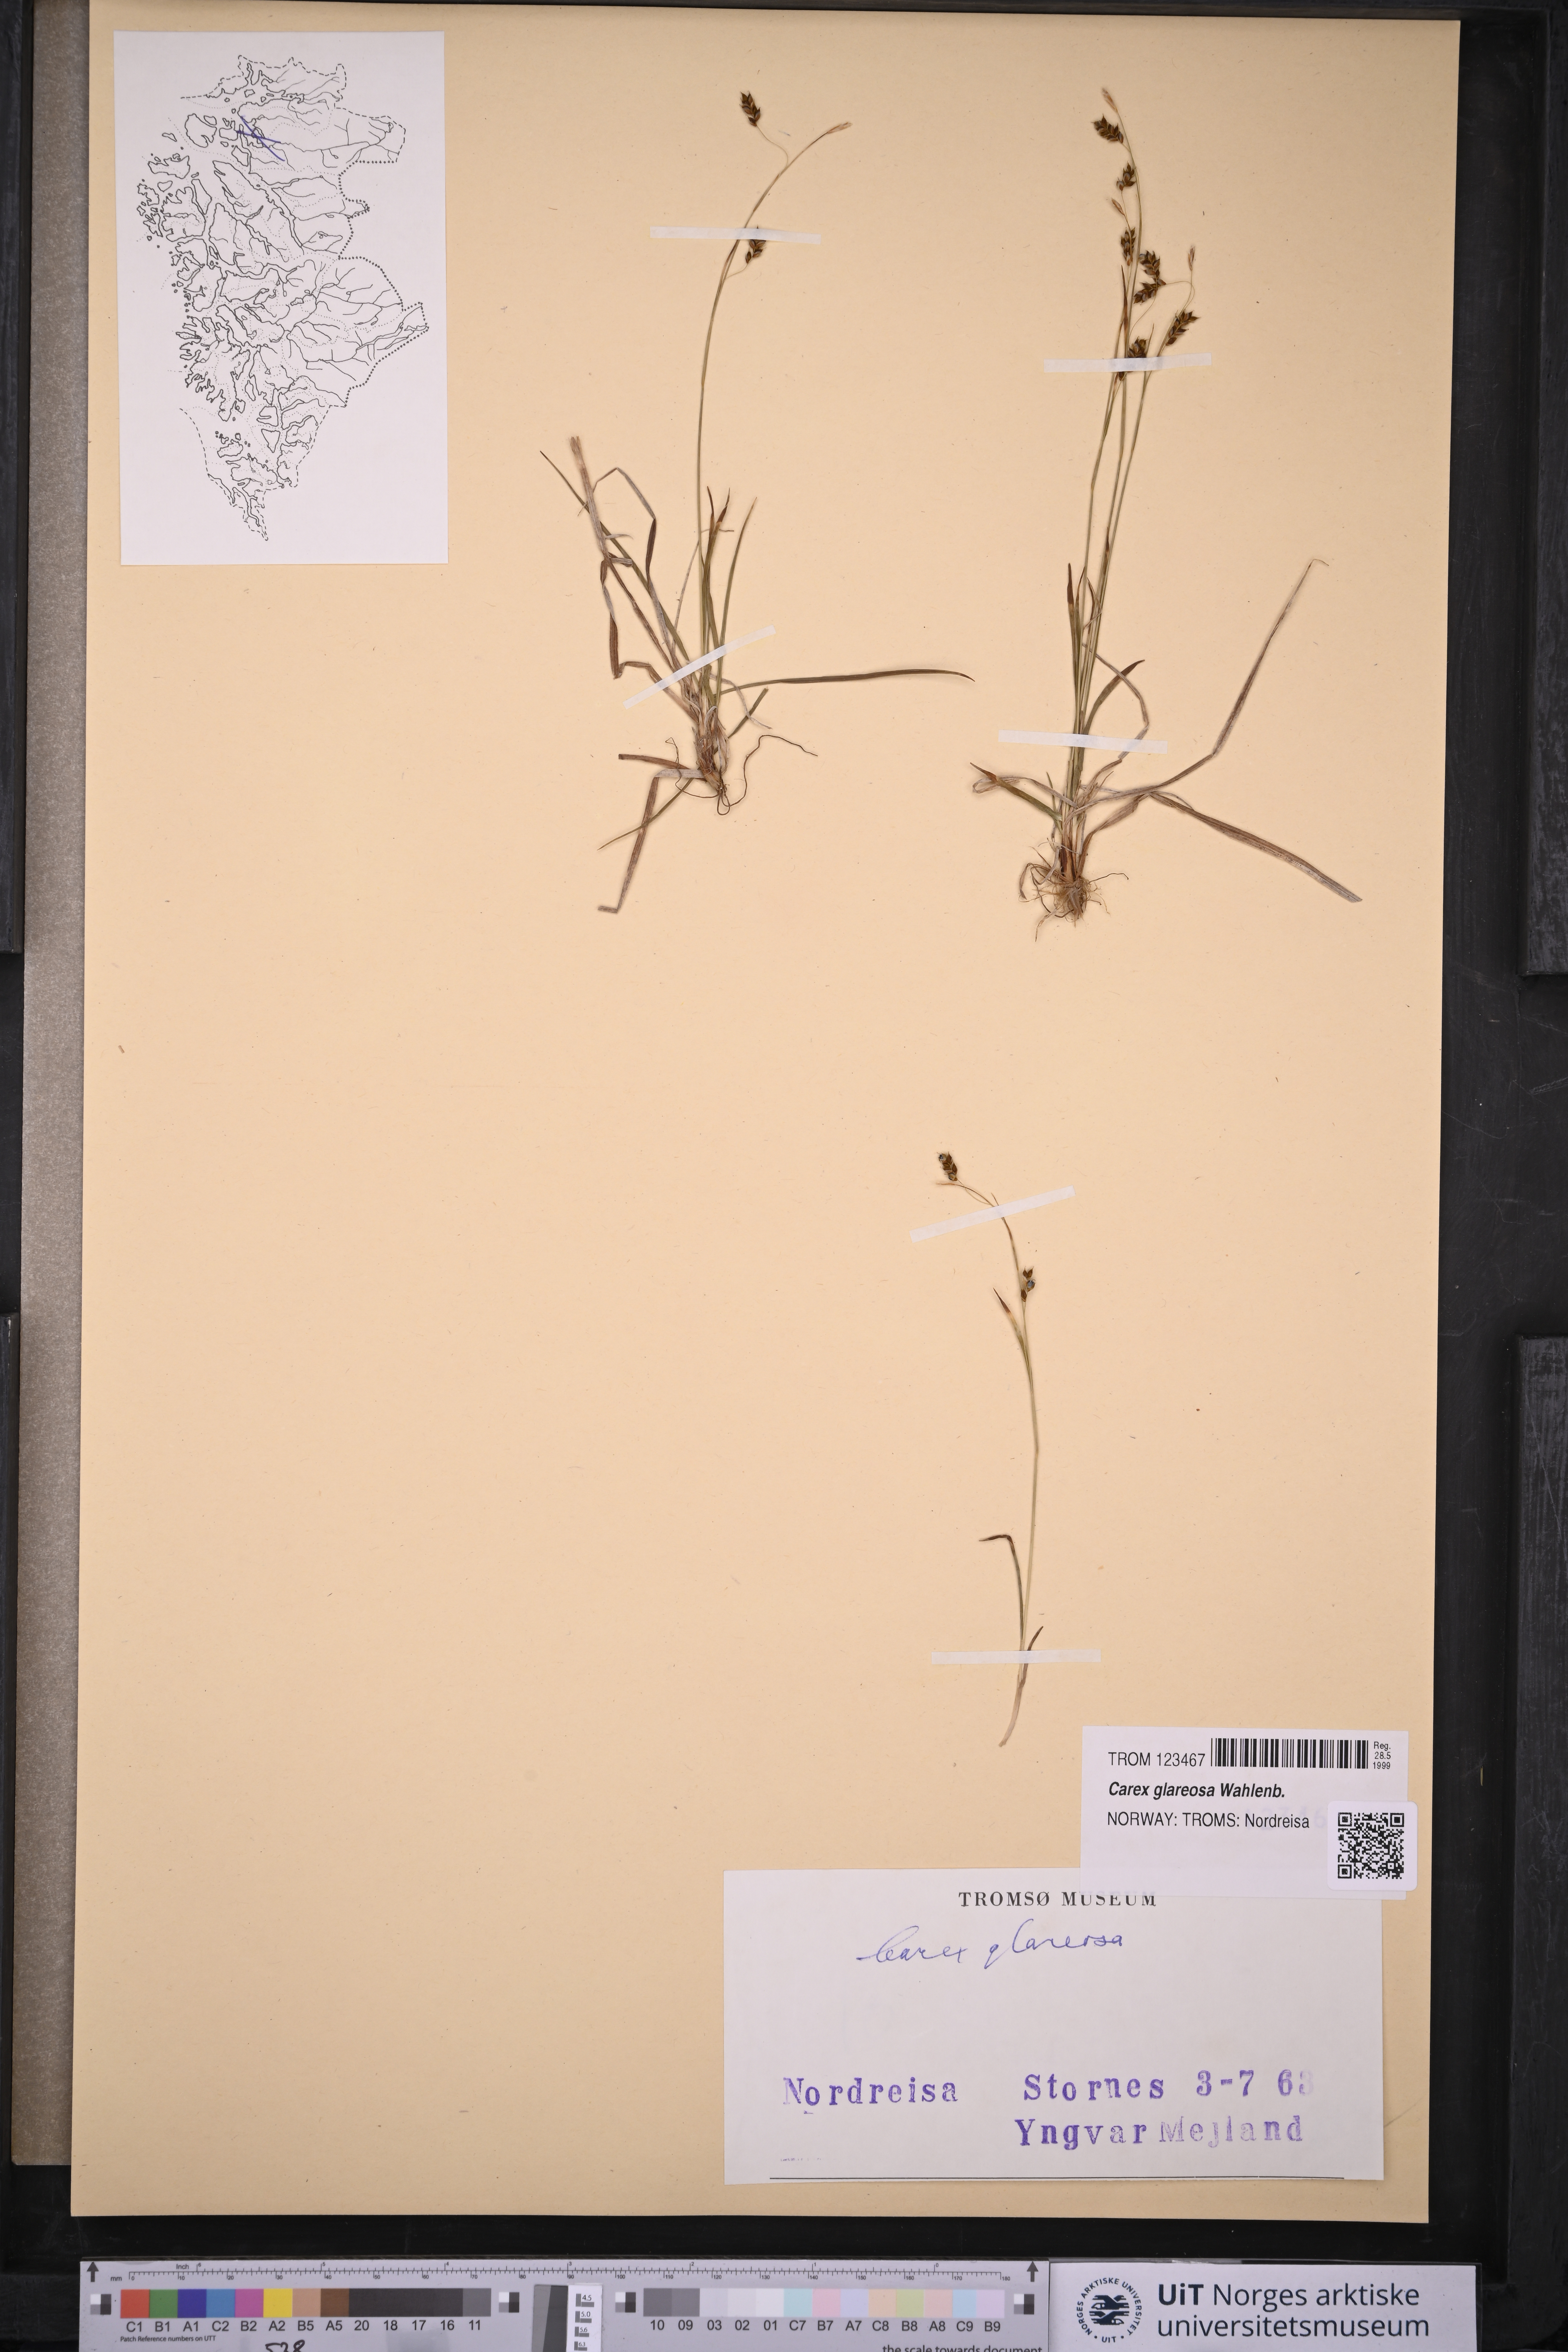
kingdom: Plantae
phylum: Tracheophyta
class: Liliopsida
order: Poales
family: Cyperaceae
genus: Carex
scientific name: Carex glareosa
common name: Clustered sedge
